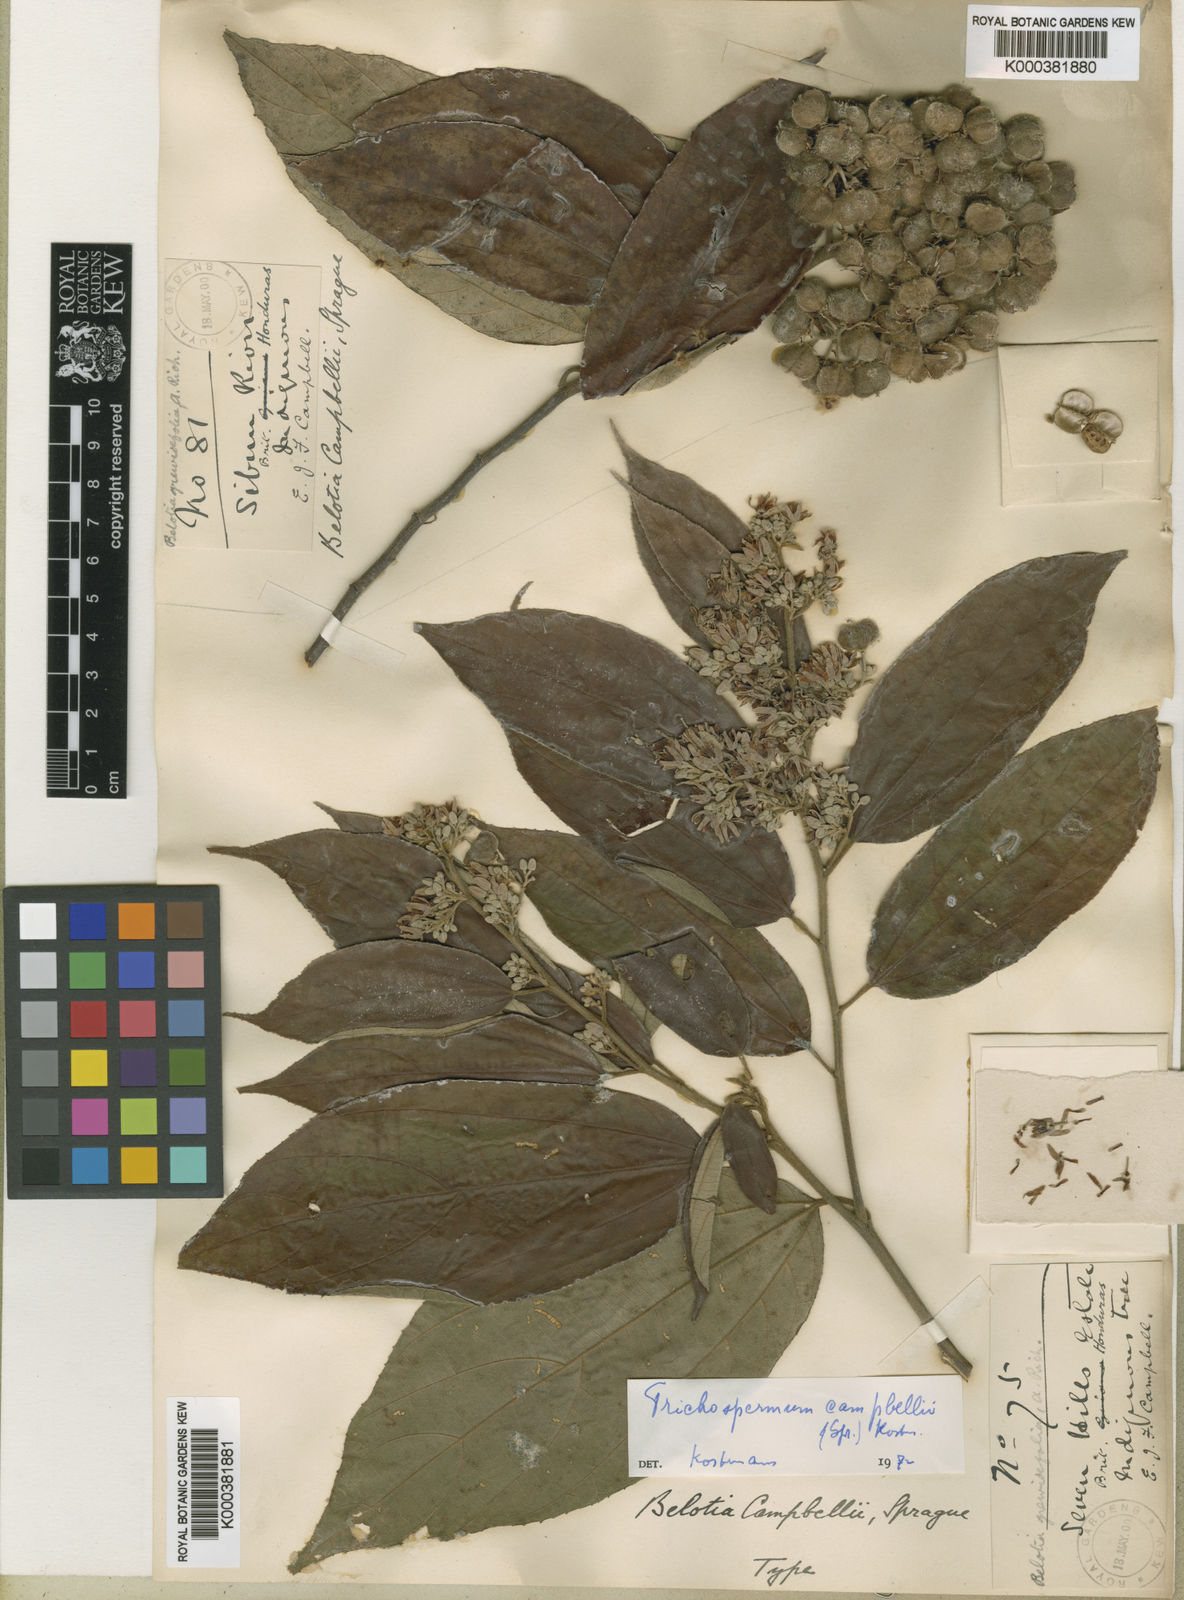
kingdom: Plantae
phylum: Tracheophyta
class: Magnoliopsida
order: Malvales
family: Malvaceae
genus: Trichospermum
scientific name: Trichospermum
